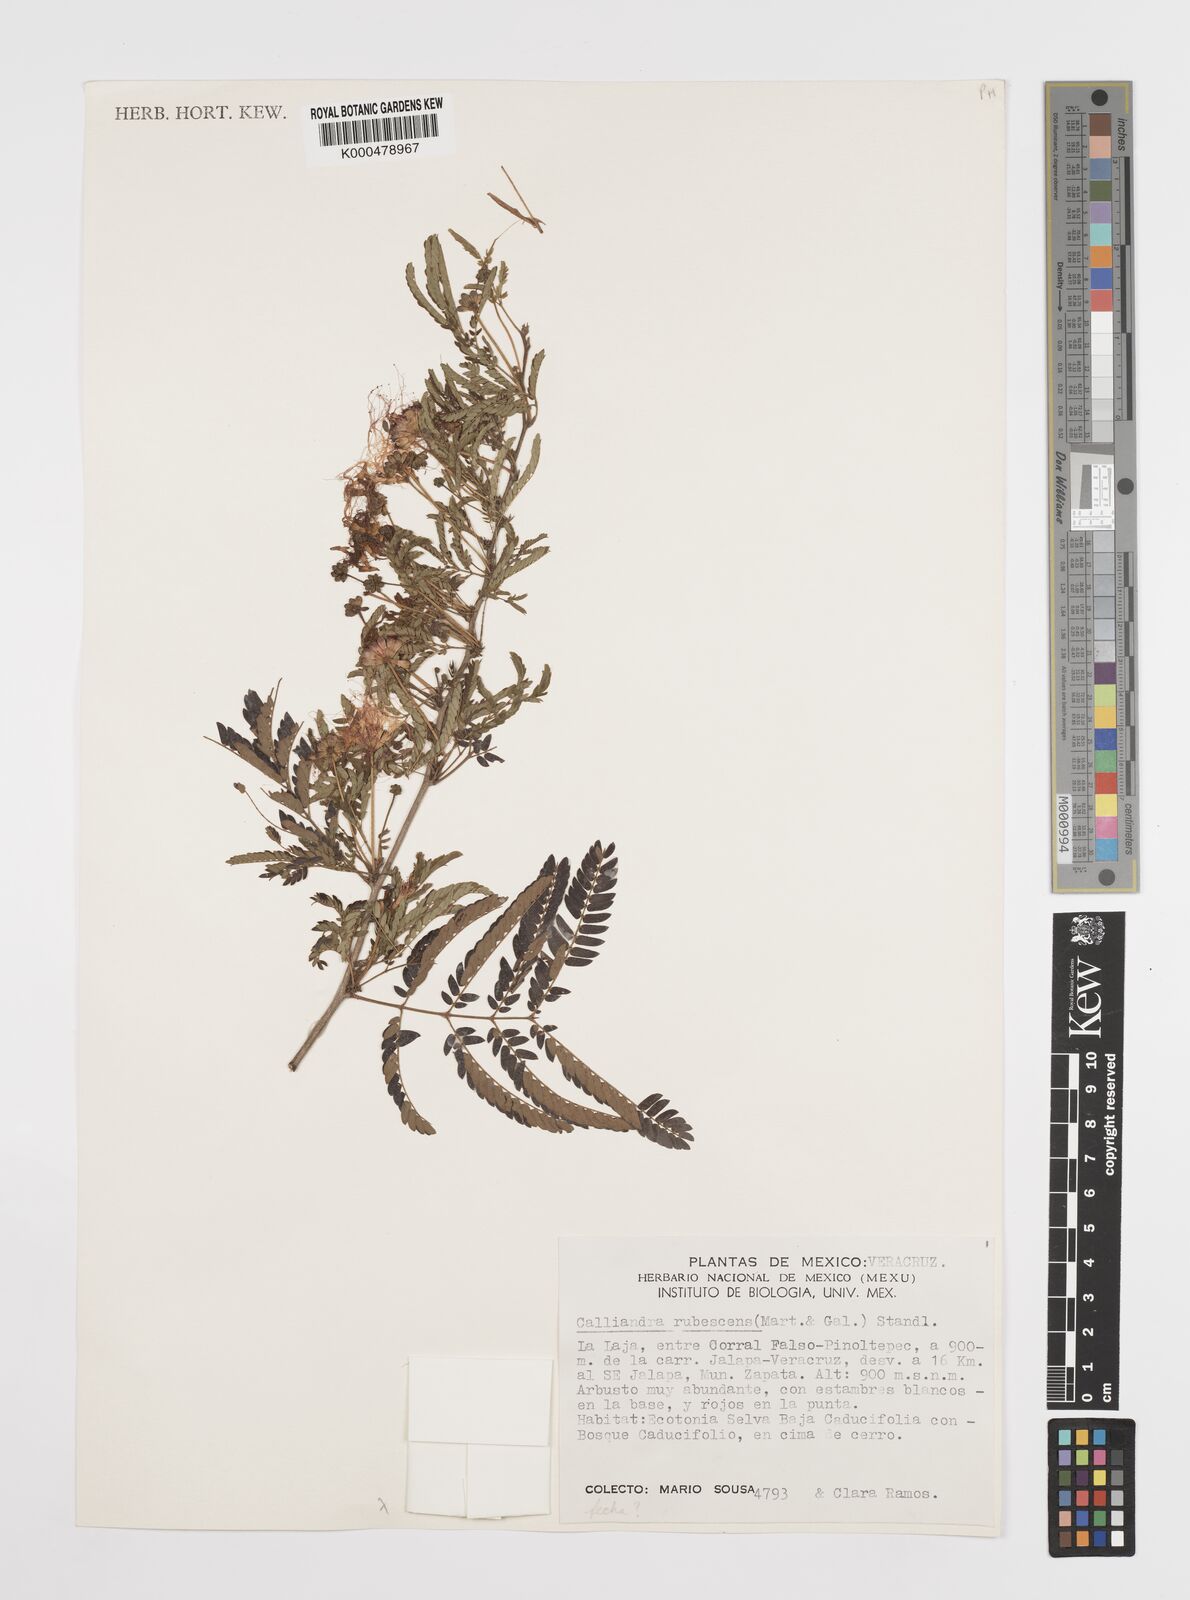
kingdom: Plantae
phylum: Tracheophyta
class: Magnoliopsida
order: Fabales
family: Fabaceae
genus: Calliandra
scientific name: Calliandra rubescens
